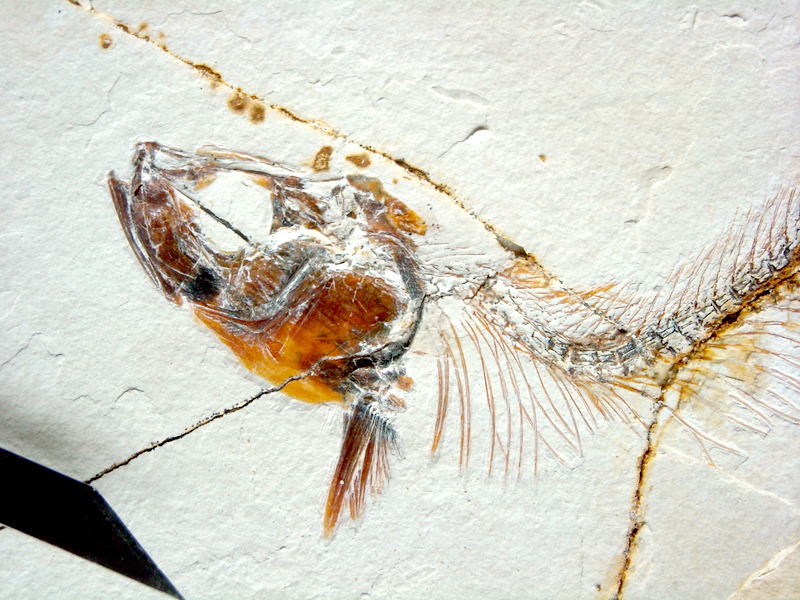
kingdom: Animalia
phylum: Chordata
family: Allothrissopidae
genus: Allothrissops
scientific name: Allothrissops mesogaster
